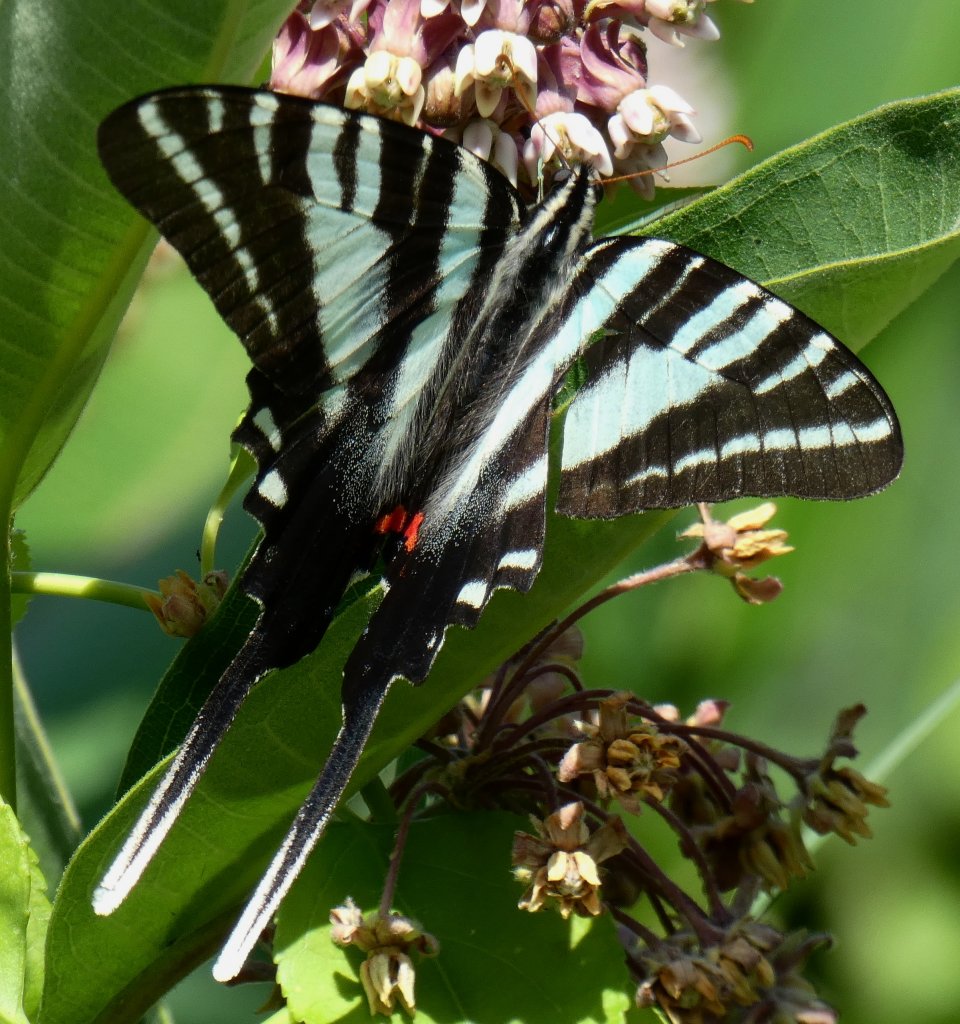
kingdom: Animalia
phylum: Arthropoda
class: Insecta
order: Lepidoptera
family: Papilionidae
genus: Protographium
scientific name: Protographium marcellus
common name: Zebra Swallowtail
